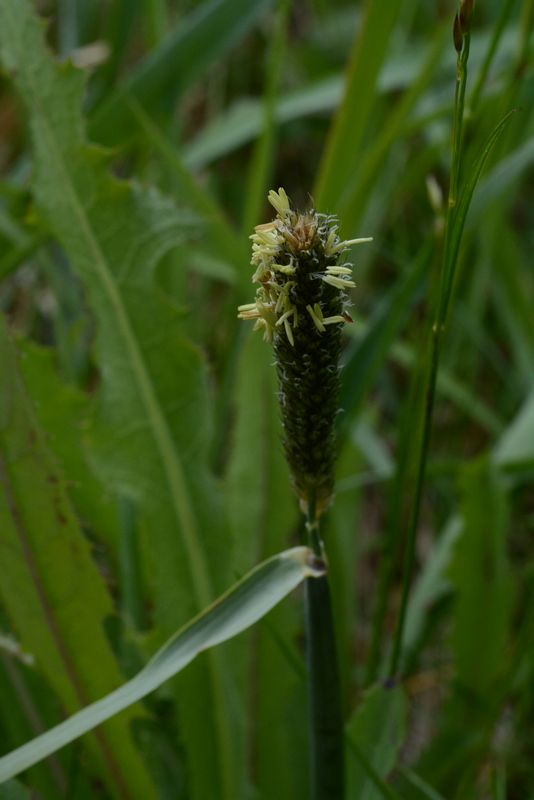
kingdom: Plantae
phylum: Tracheophyta
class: Liliopsida
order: Poales
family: Poaceae
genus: Alopecurus
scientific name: Alopecurus arundinaceus
